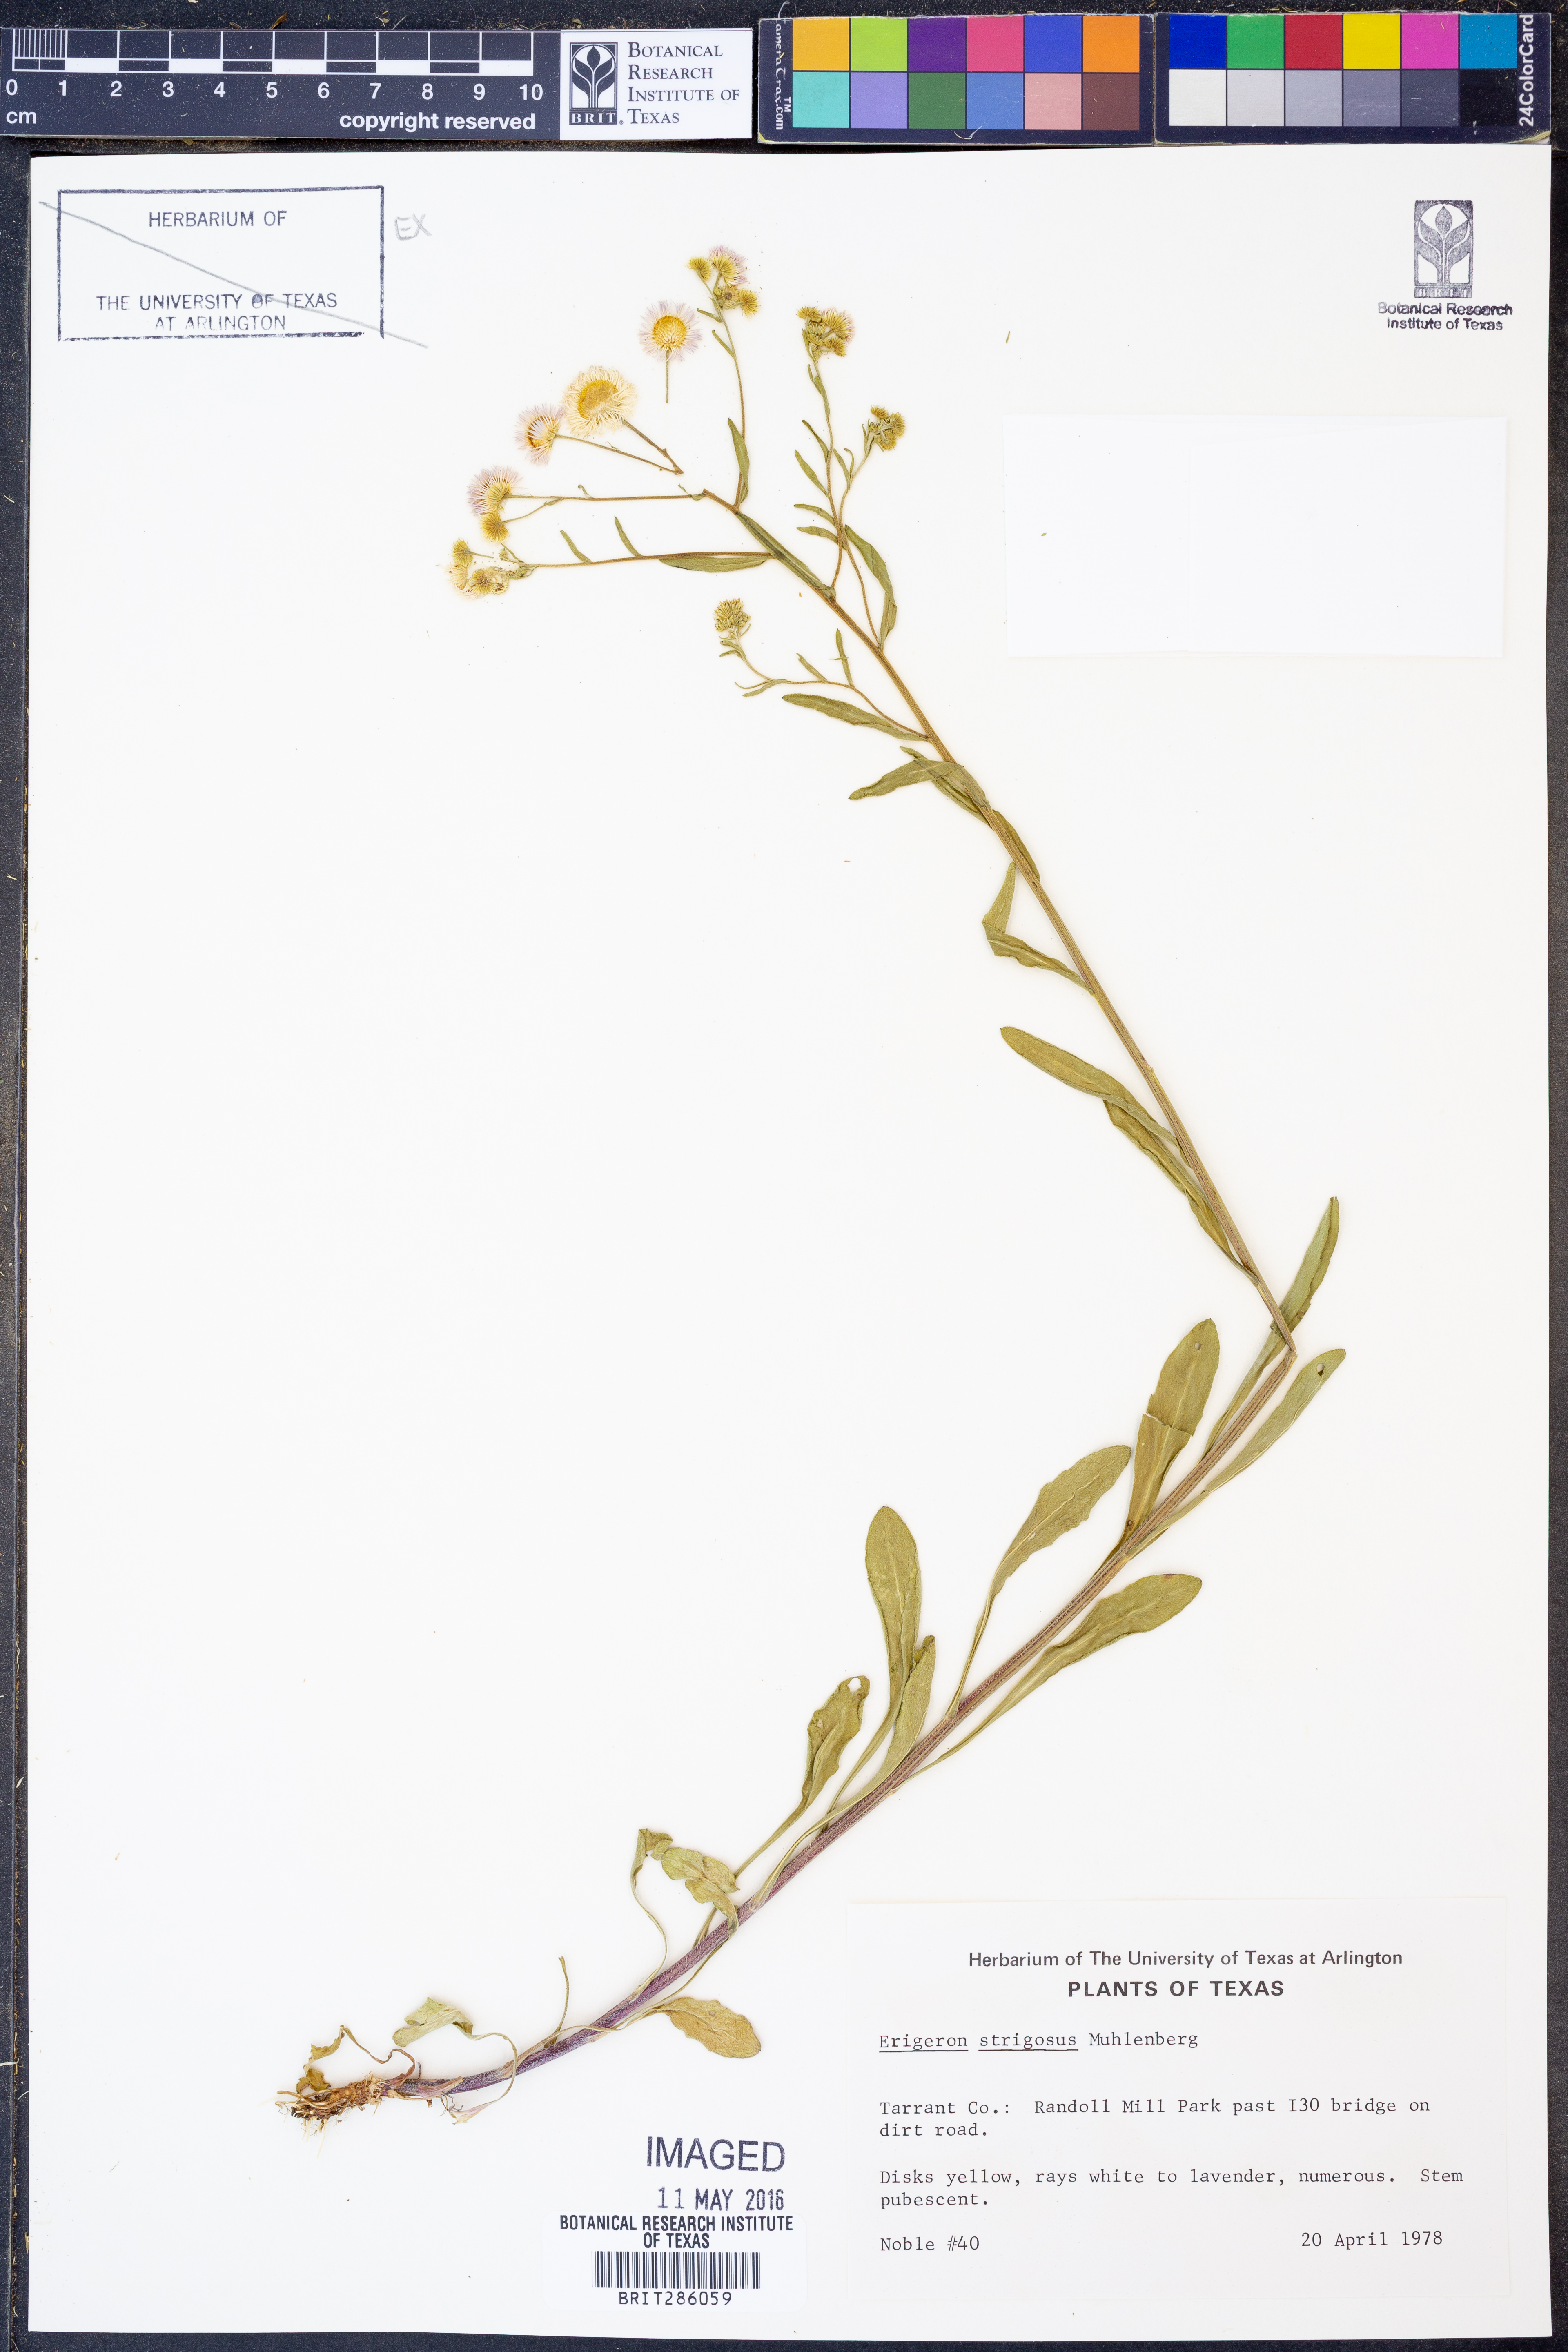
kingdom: Plantae
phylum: Tracheophyta
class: Magnoliopsida
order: Asterales
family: Asteraceae
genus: Erigeron
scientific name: Erigeron strigosus
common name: Common eastern fleabane
